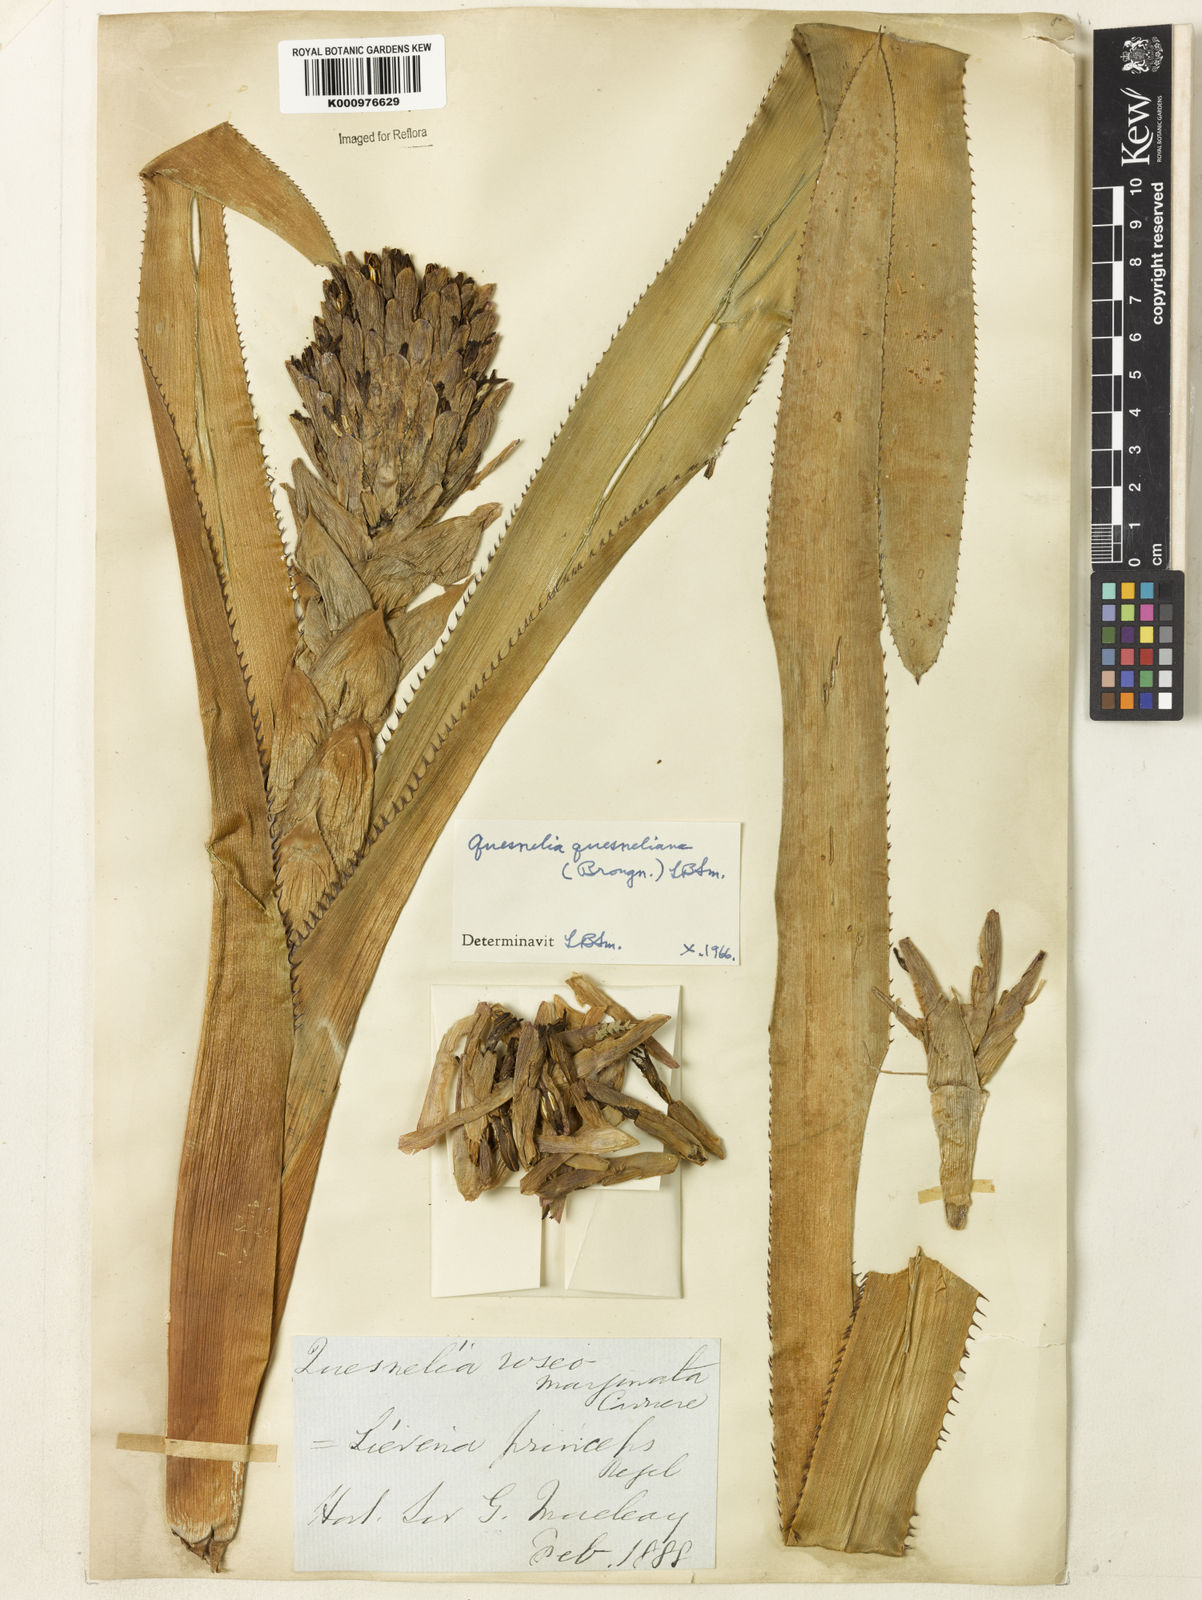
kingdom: Plantae
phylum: Tracheophyta
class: Liliopsida
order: Poales
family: Bromeliaceae
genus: Quesnelia
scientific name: Quesnelia quesneliana
